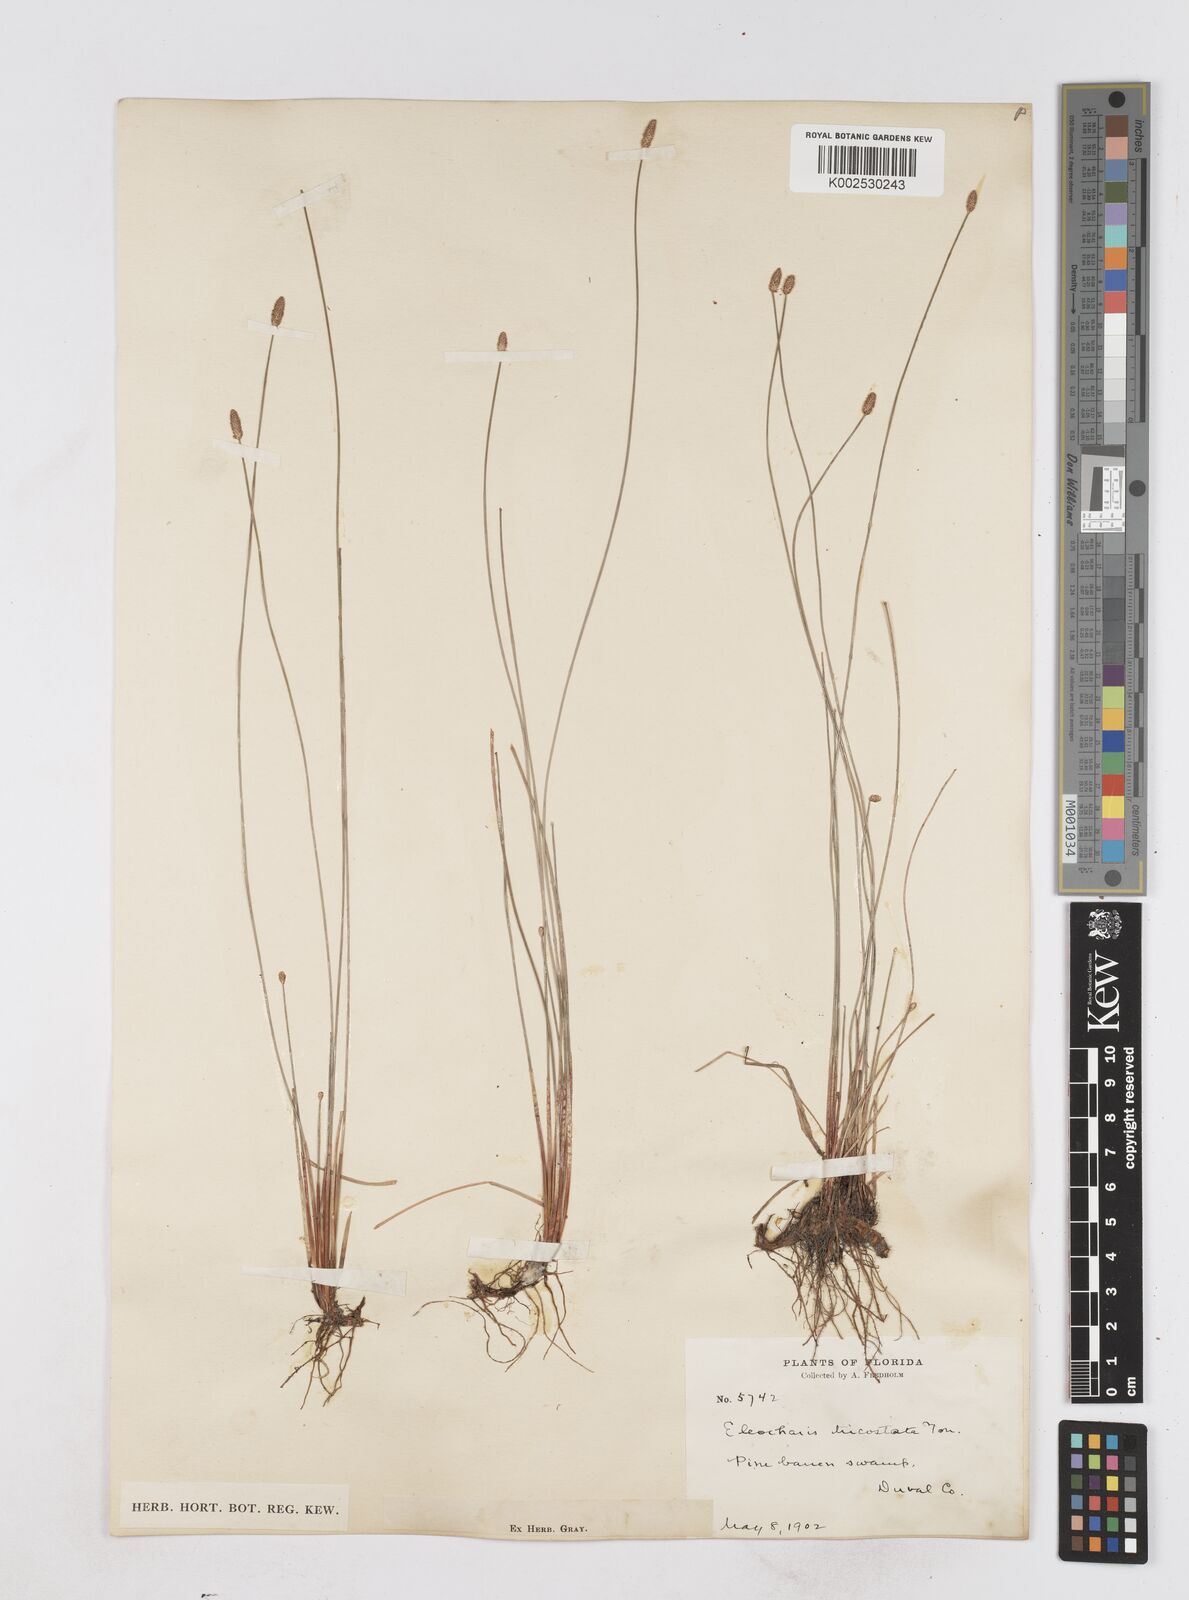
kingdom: Plantae
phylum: Tracheophyta
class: Liliopsida
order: Poales
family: Cyperaceae
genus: Eleocharis
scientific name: Eleocharis tricostata
